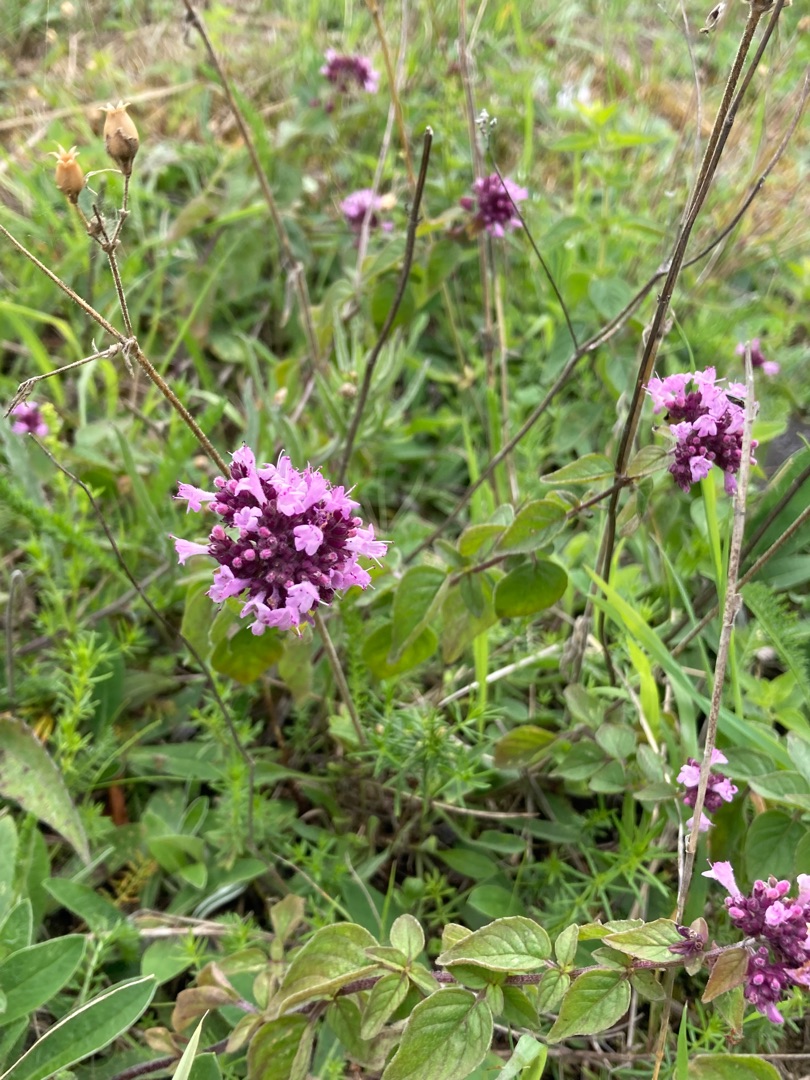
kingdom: Plantae
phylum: Tracheophyta
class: Magnoliopsida
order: Lamiales
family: Lamiaceae
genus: Origanum
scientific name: Origanum vulgare
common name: Merian
